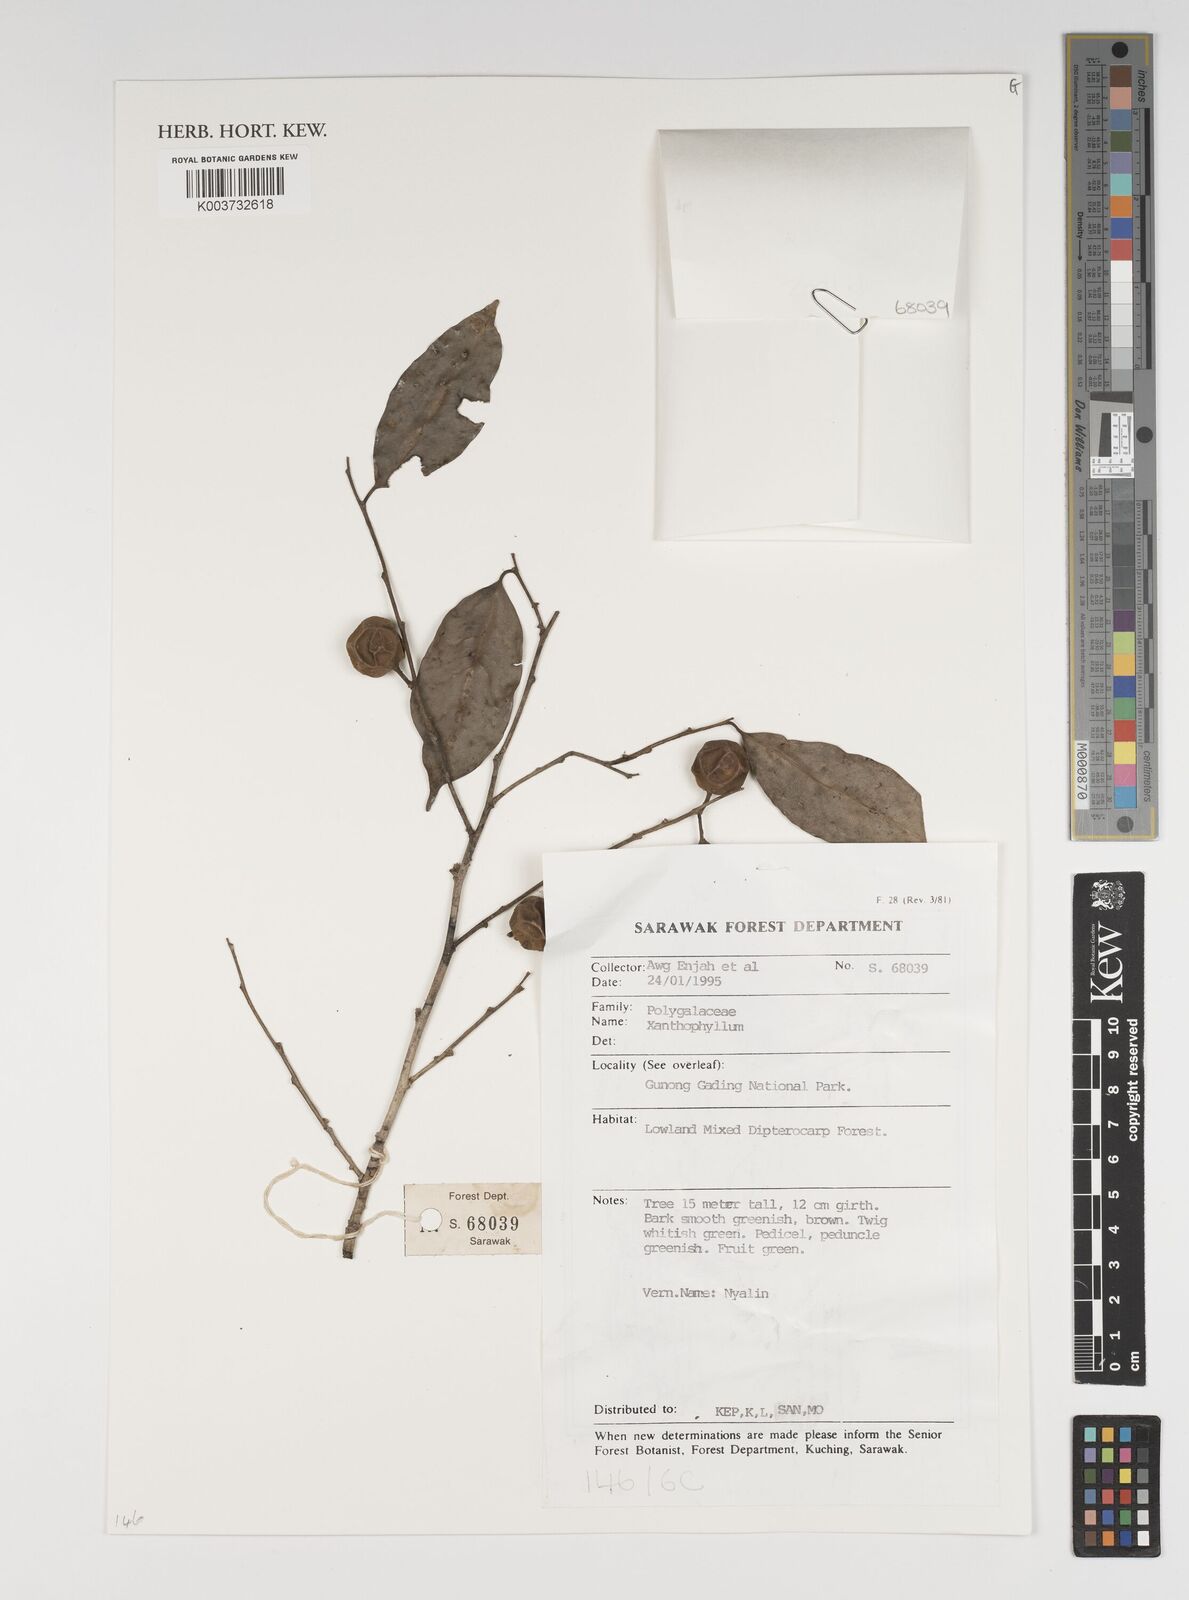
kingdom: Plantae
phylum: Tracheophyta
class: Magnoliopsida
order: Fabales
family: Polygalaceae
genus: Xanthophyllum
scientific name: Xanthophyllum
